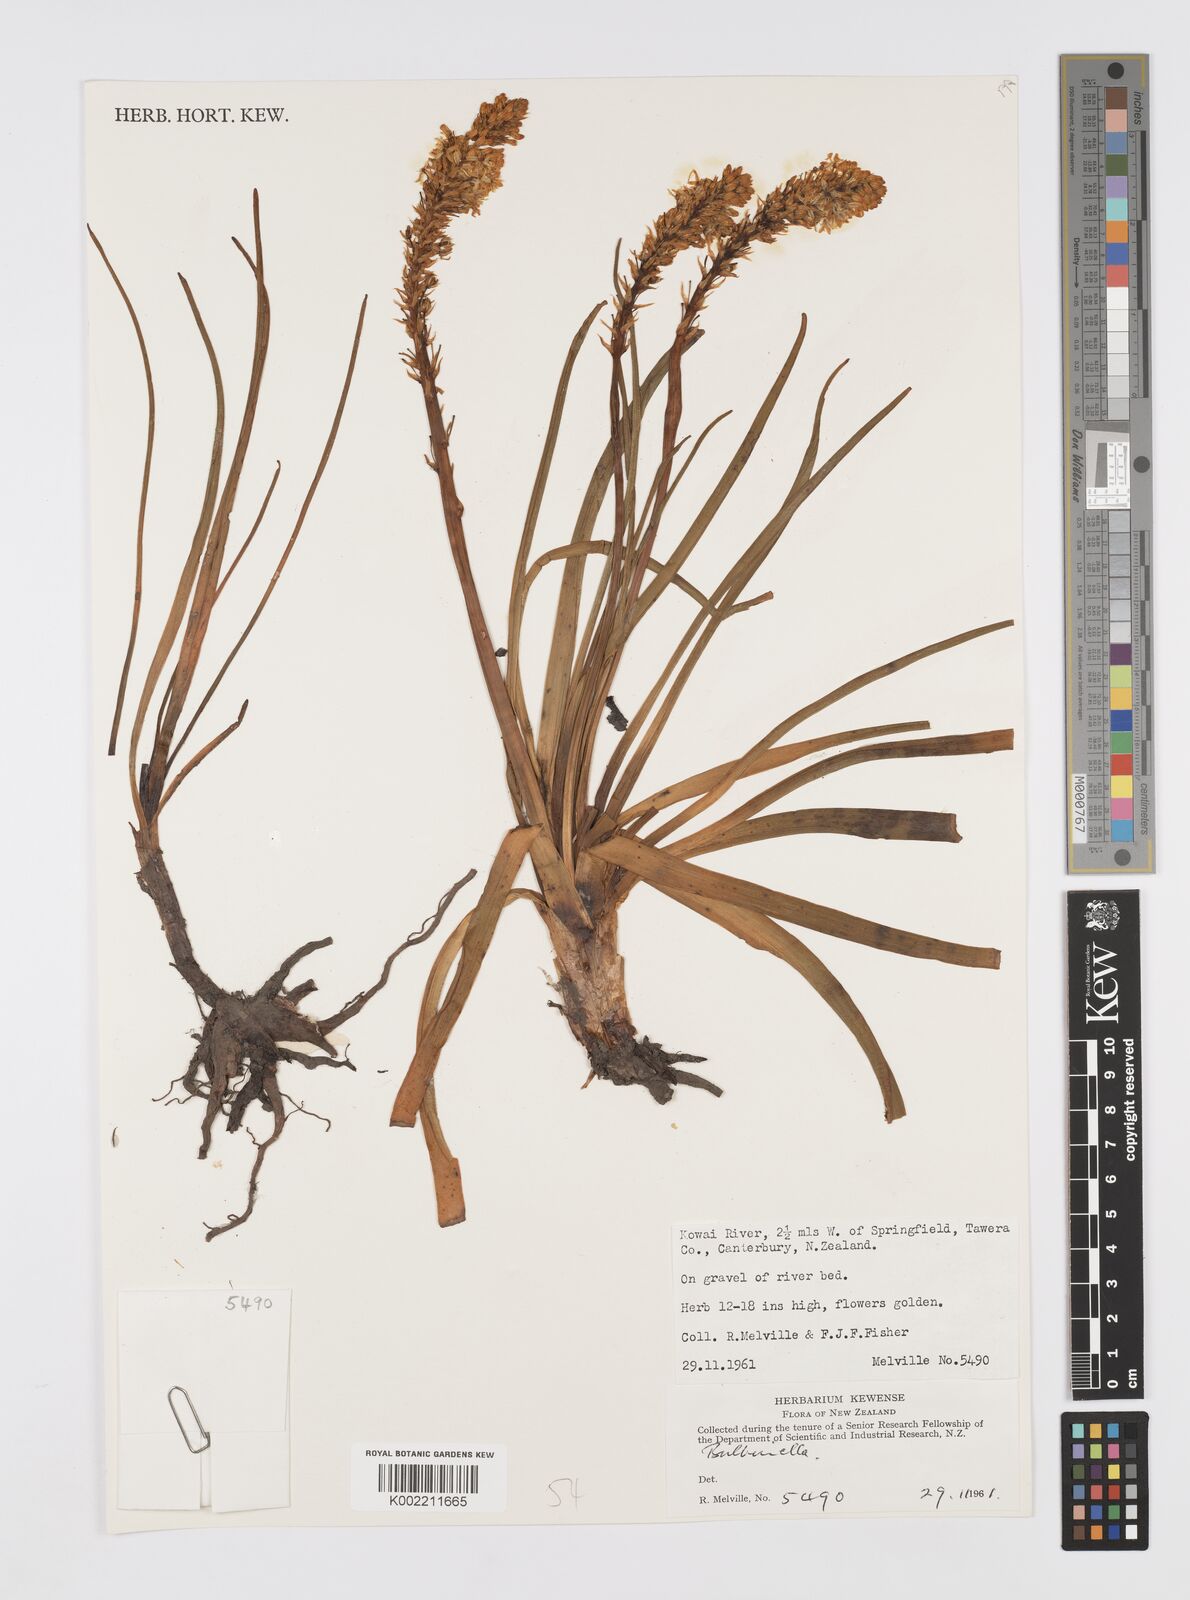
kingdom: Plantae
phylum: Tracheophyta
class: Liliopsida
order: Asparagales
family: Asphodelaceae
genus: Bulbinella
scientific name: Bulbinella
